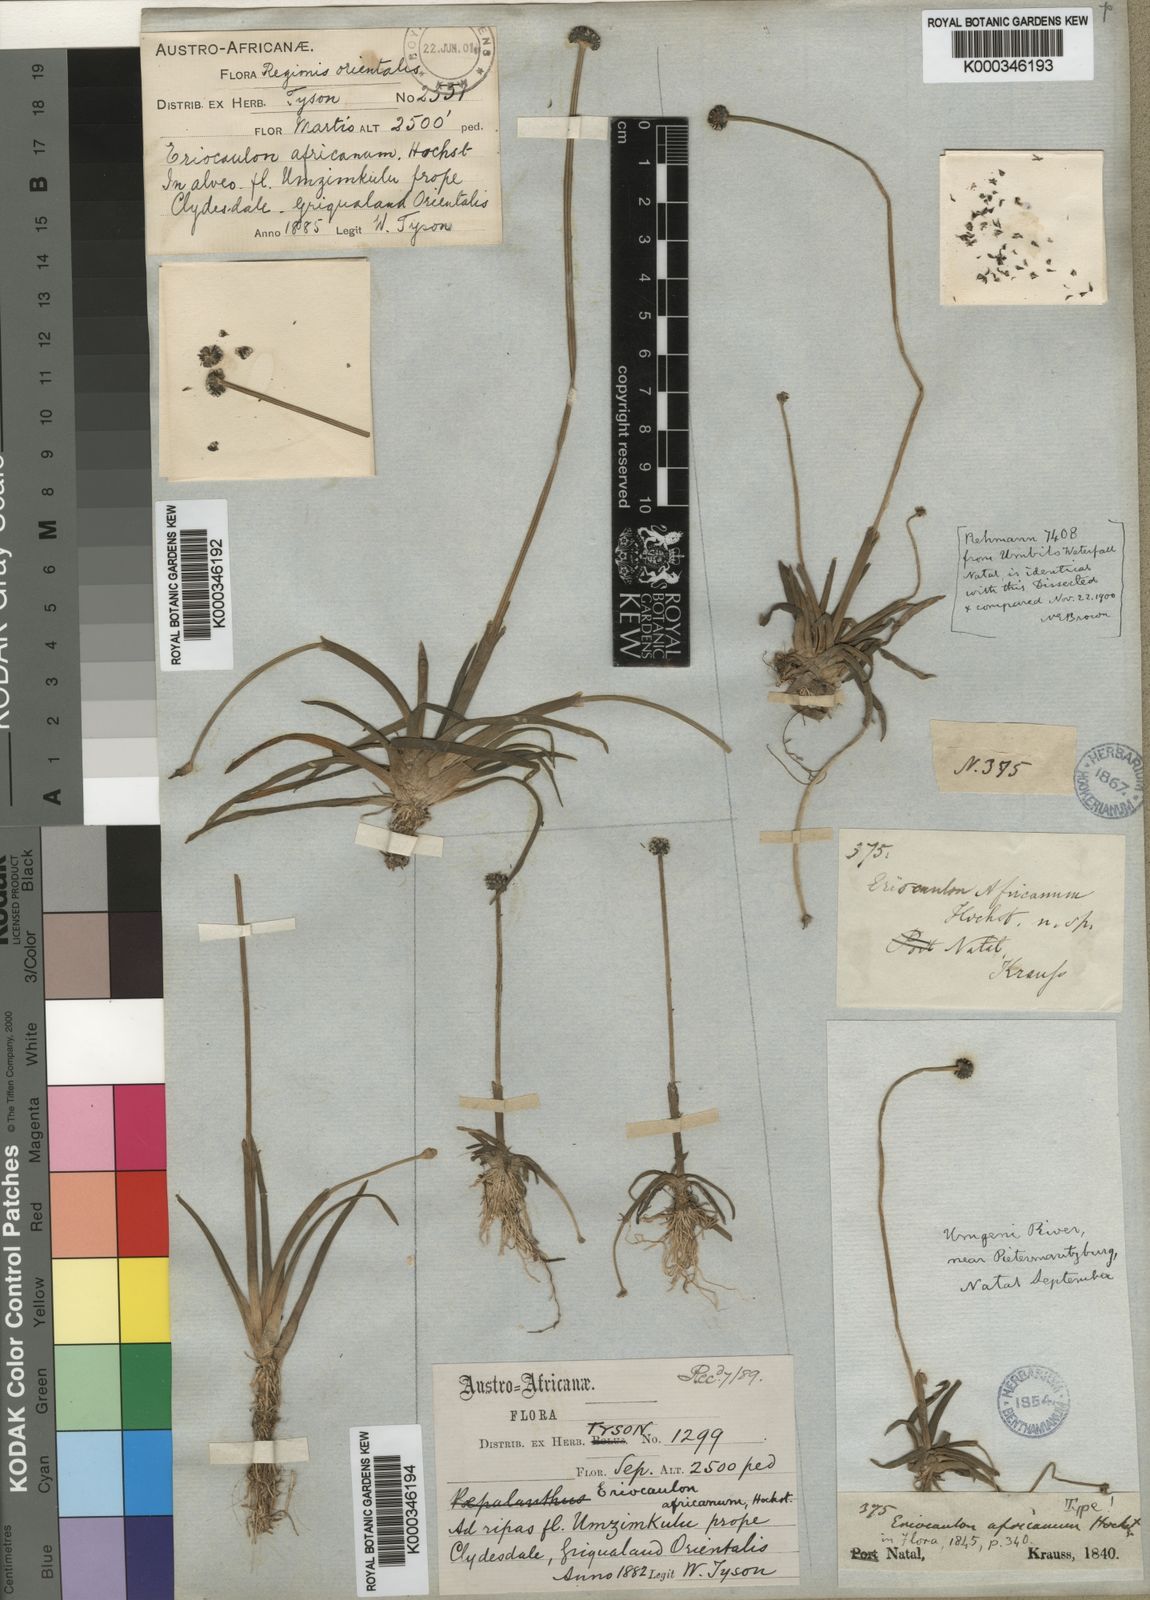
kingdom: Plantae
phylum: Tracheophyta
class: Liliopsida
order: Poales
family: Eriocaulaceae
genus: Eriocaulon
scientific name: Eriocaulon africanum
